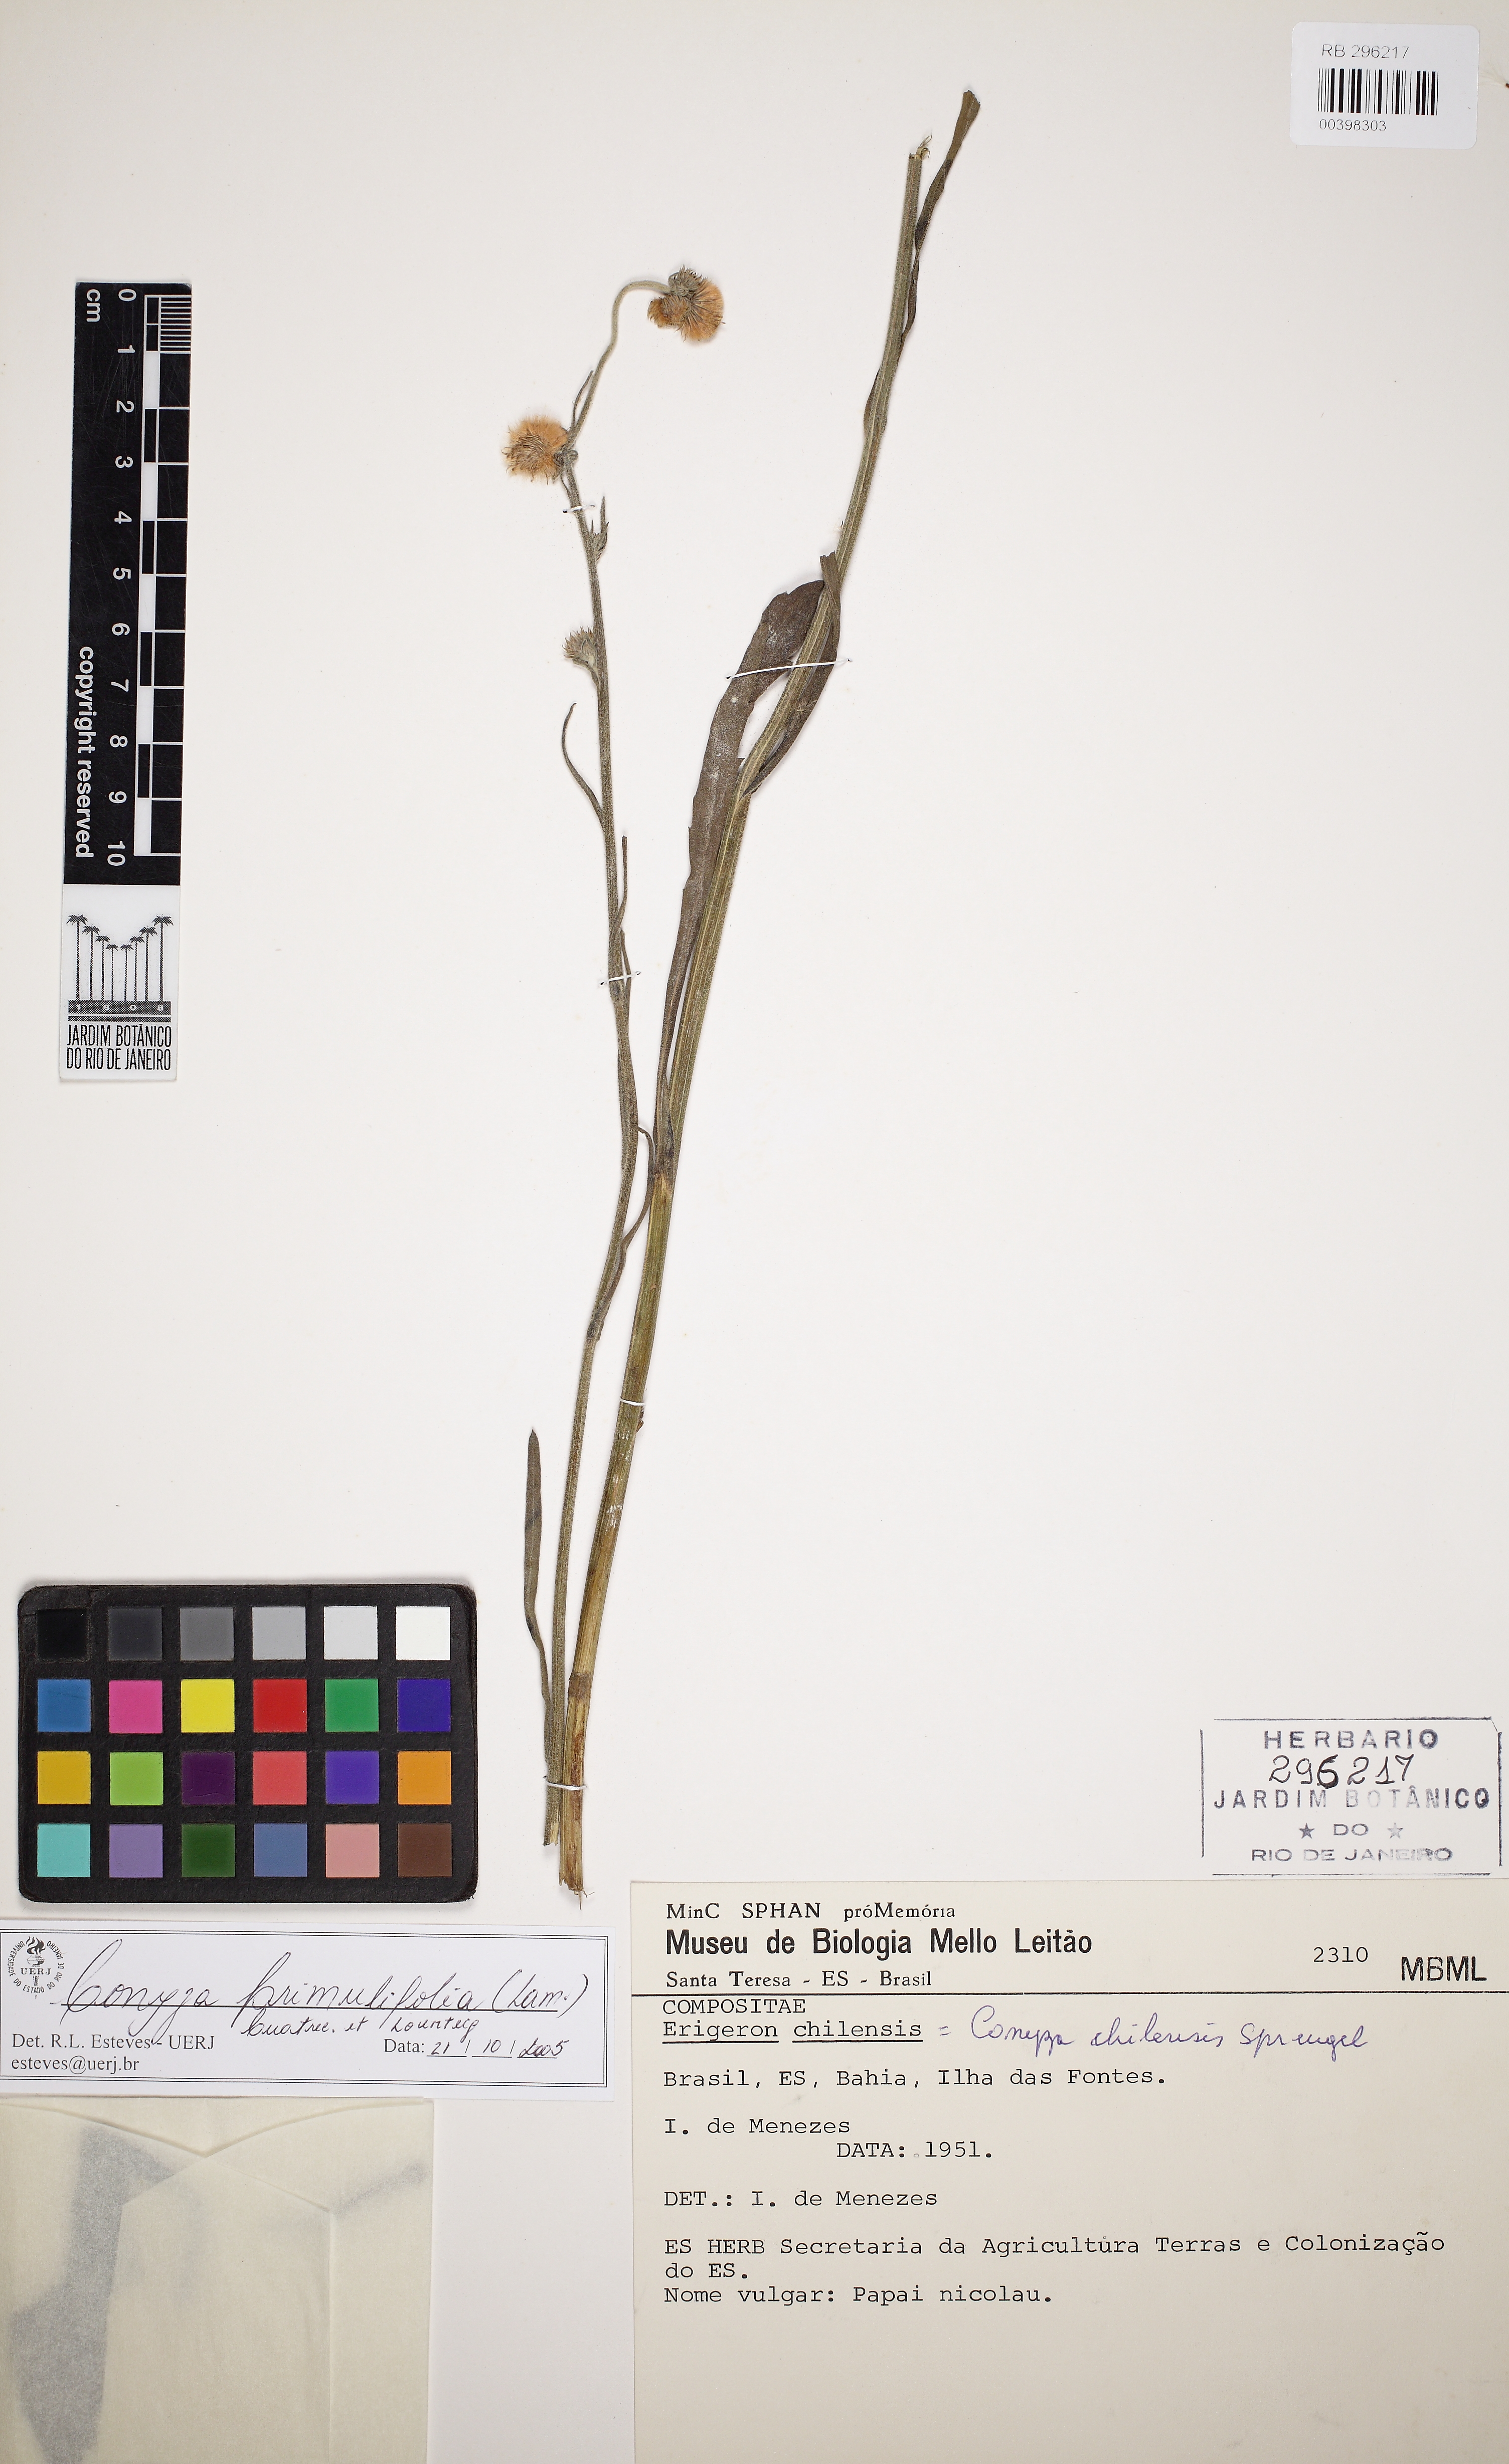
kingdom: Plantae
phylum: Tracheophyta
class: Magnoliopsida
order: Asterales
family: Asteraceae
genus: Erigeron
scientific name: Erigeron primulifolius
